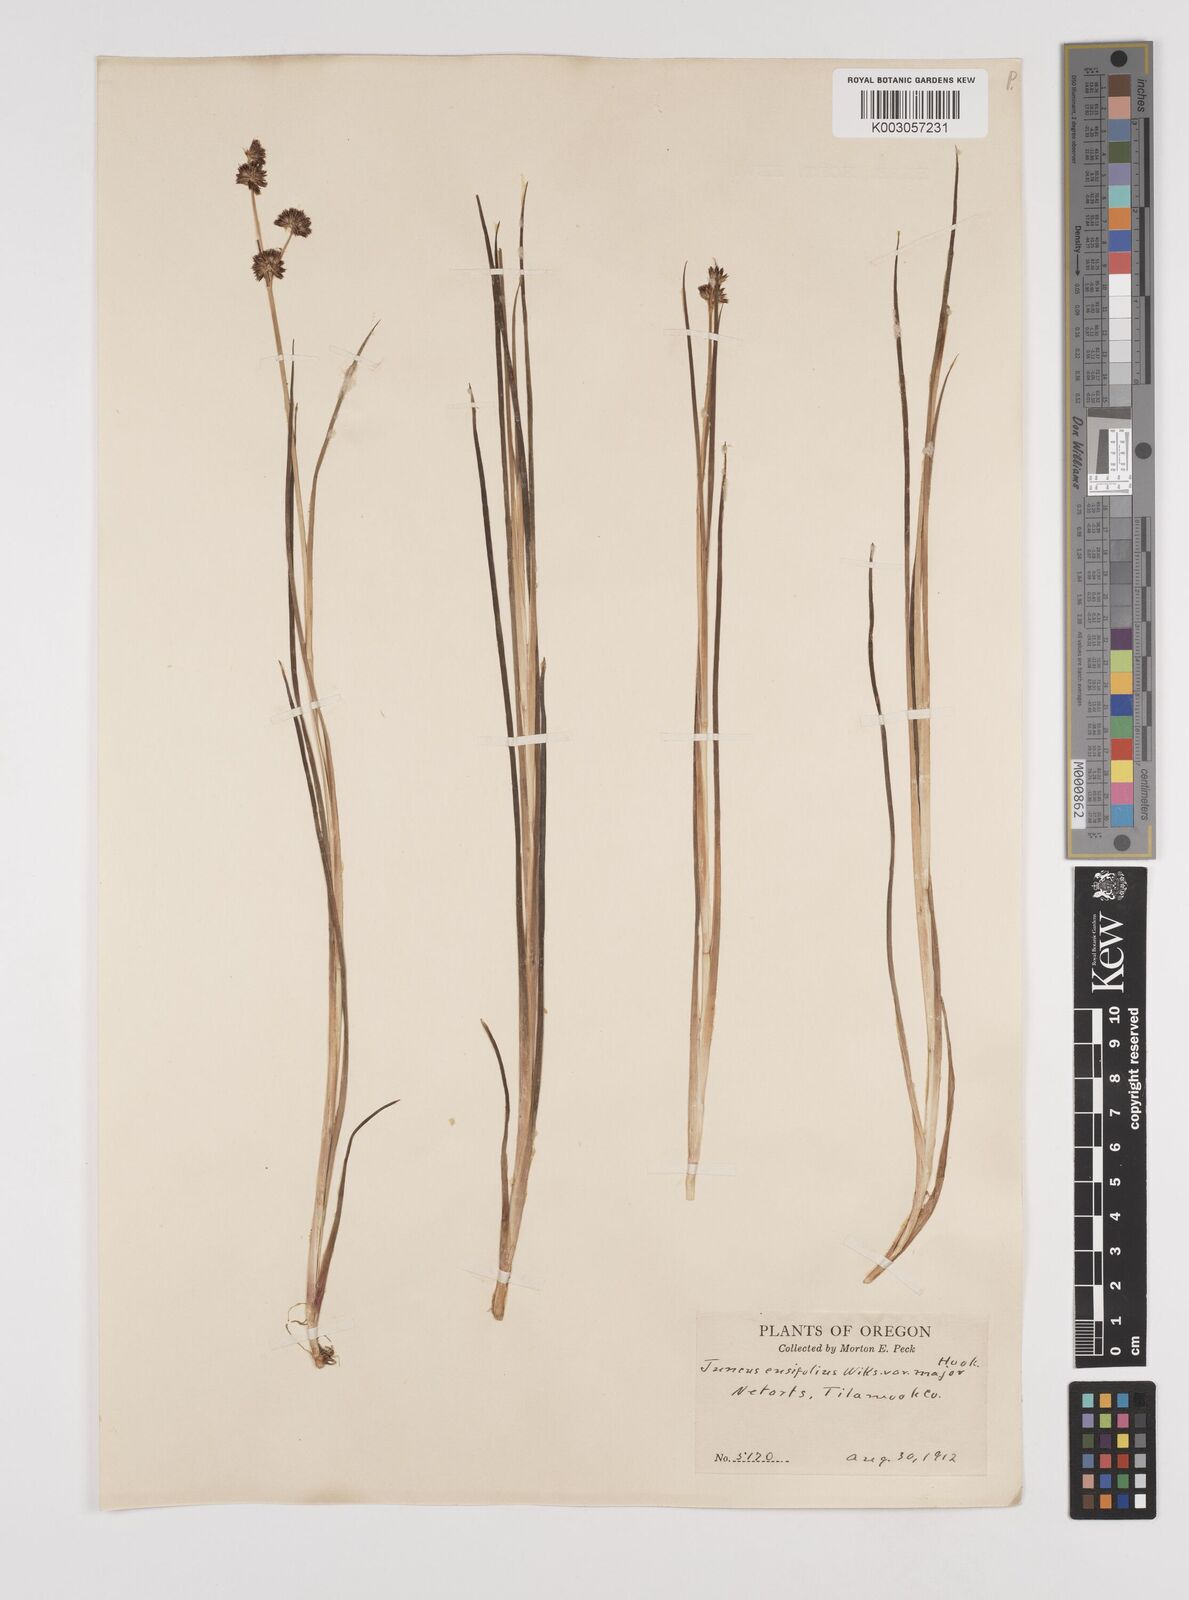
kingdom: Plantae
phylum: Tracheophyta
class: Liliopsida
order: Poales
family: Juncaceae
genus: Juncus
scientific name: Juncus ensifolius
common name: Sword-leaved rush
